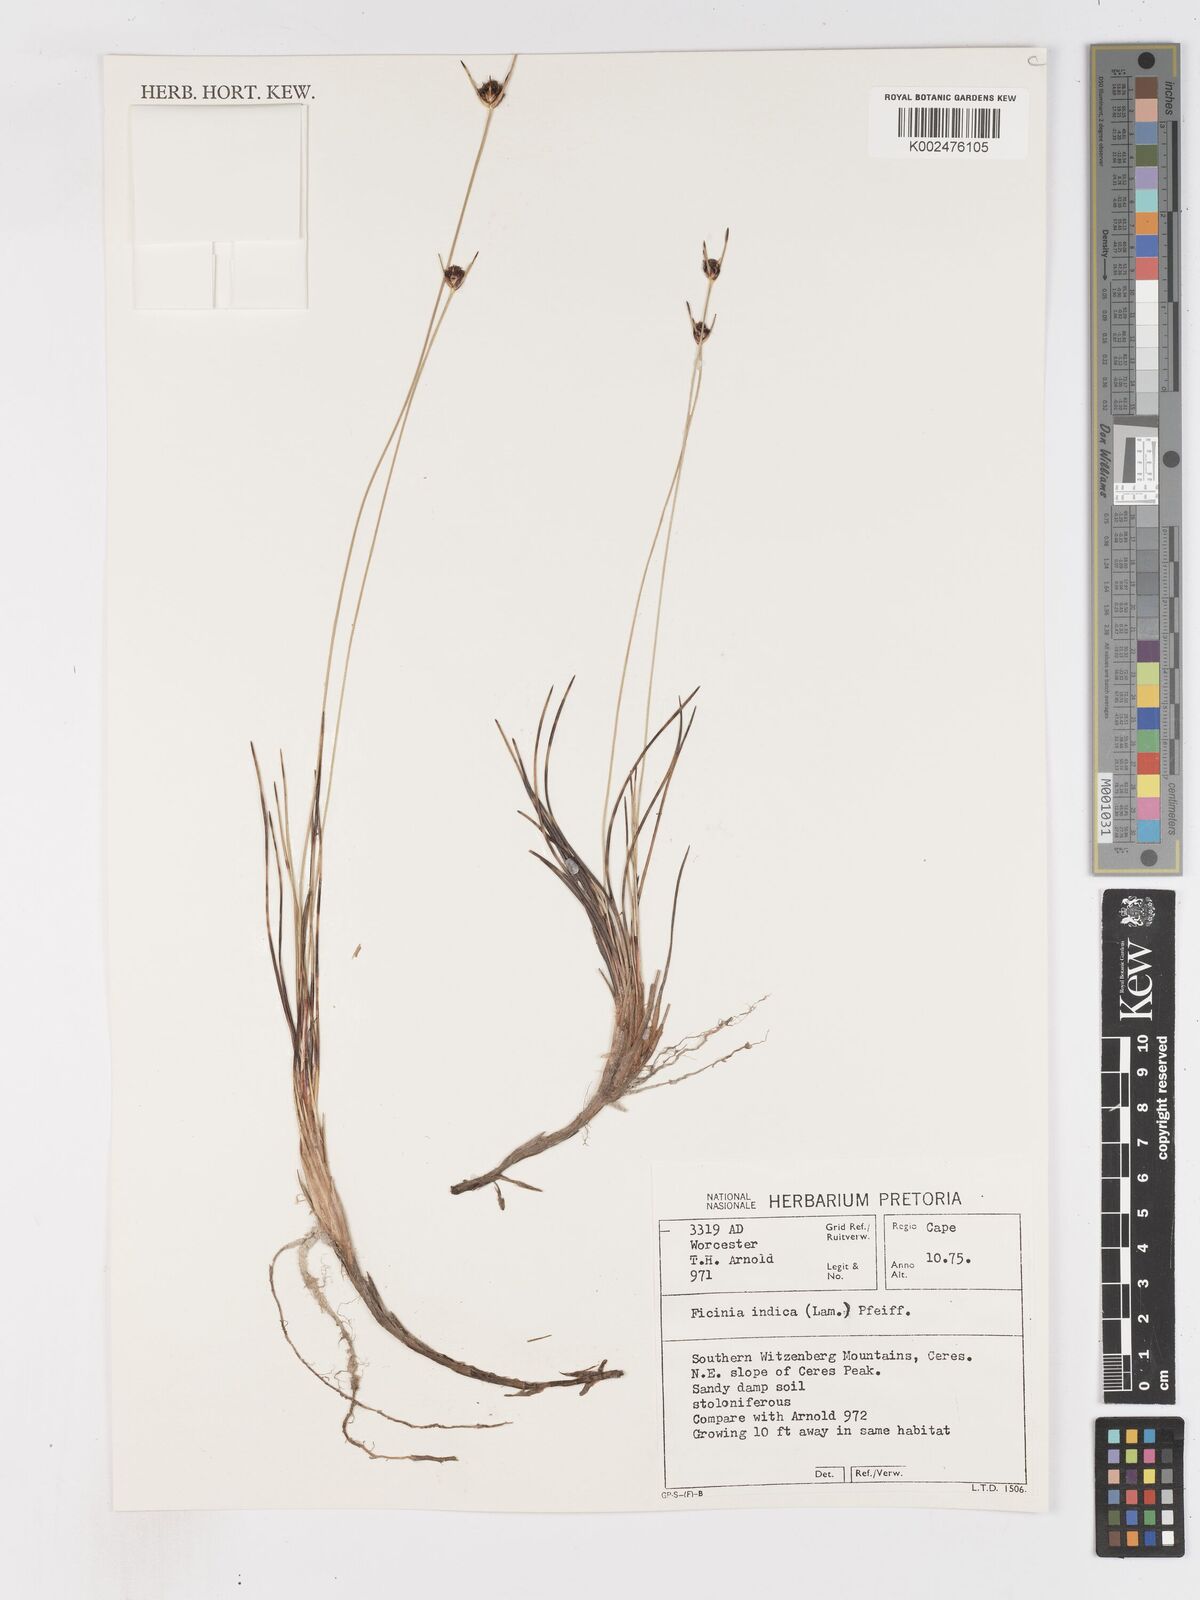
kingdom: Plantae
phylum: Tracheophyta
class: Liliopsida
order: Poales
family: Cyperaceae
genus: Ficinia
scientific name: Ficinia indica
